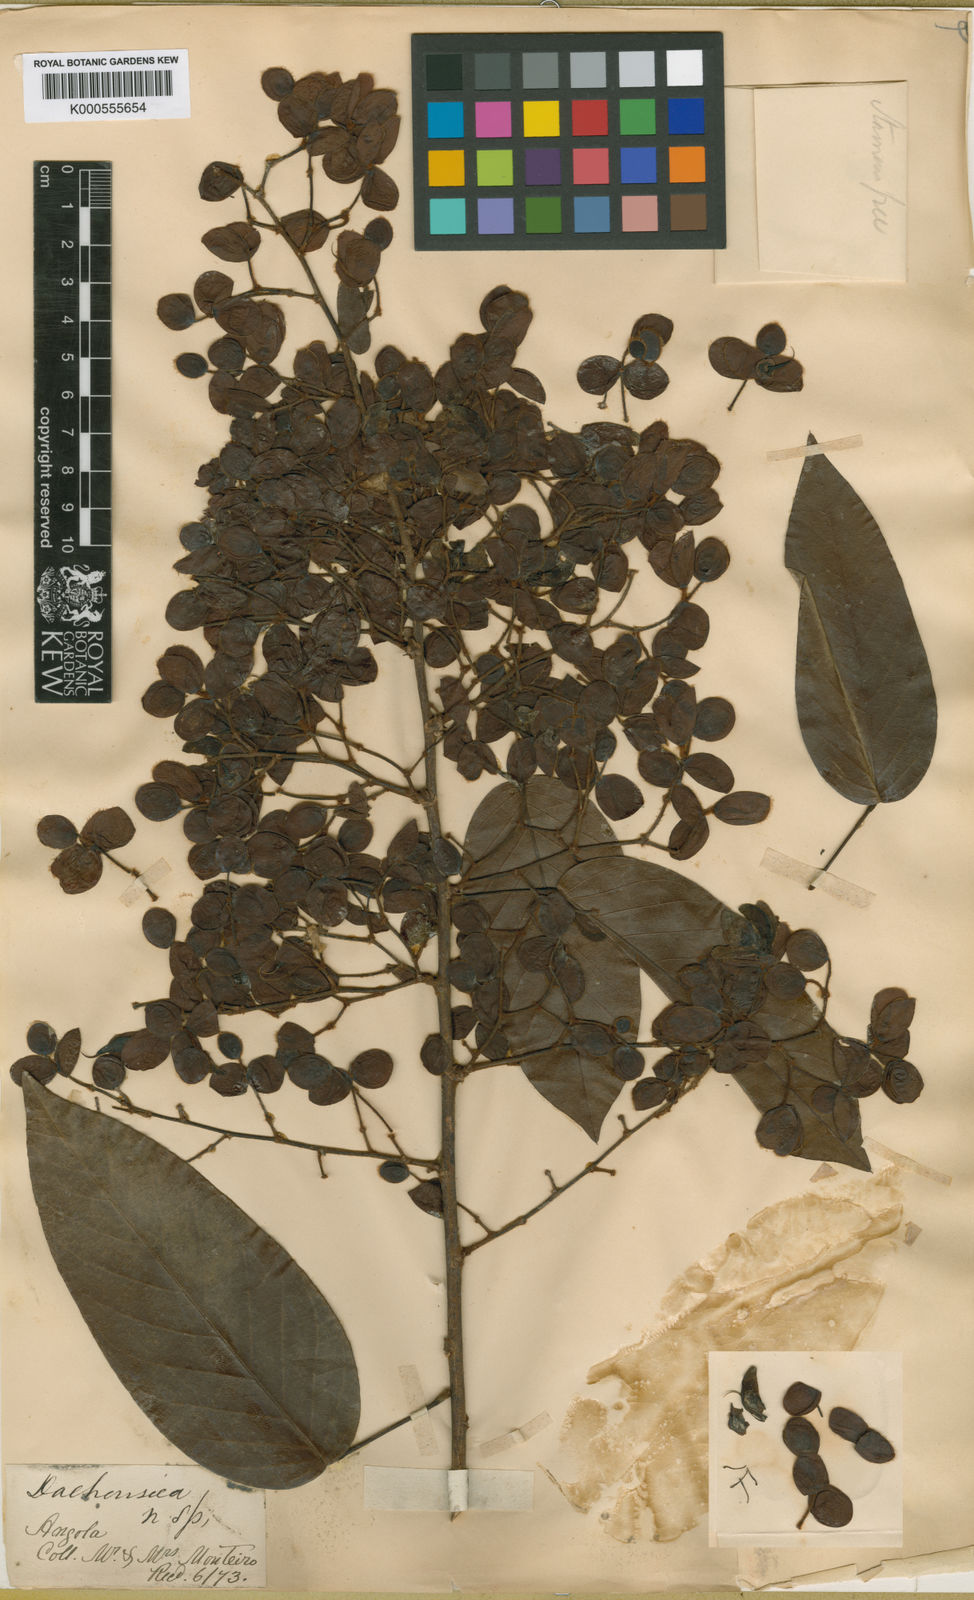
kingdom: Plantae
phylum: Tracheophyta
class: Magnoliopsida
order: Fabales
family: Fabaceae
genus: Dalhousiea
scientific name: Dalhousiea africana
